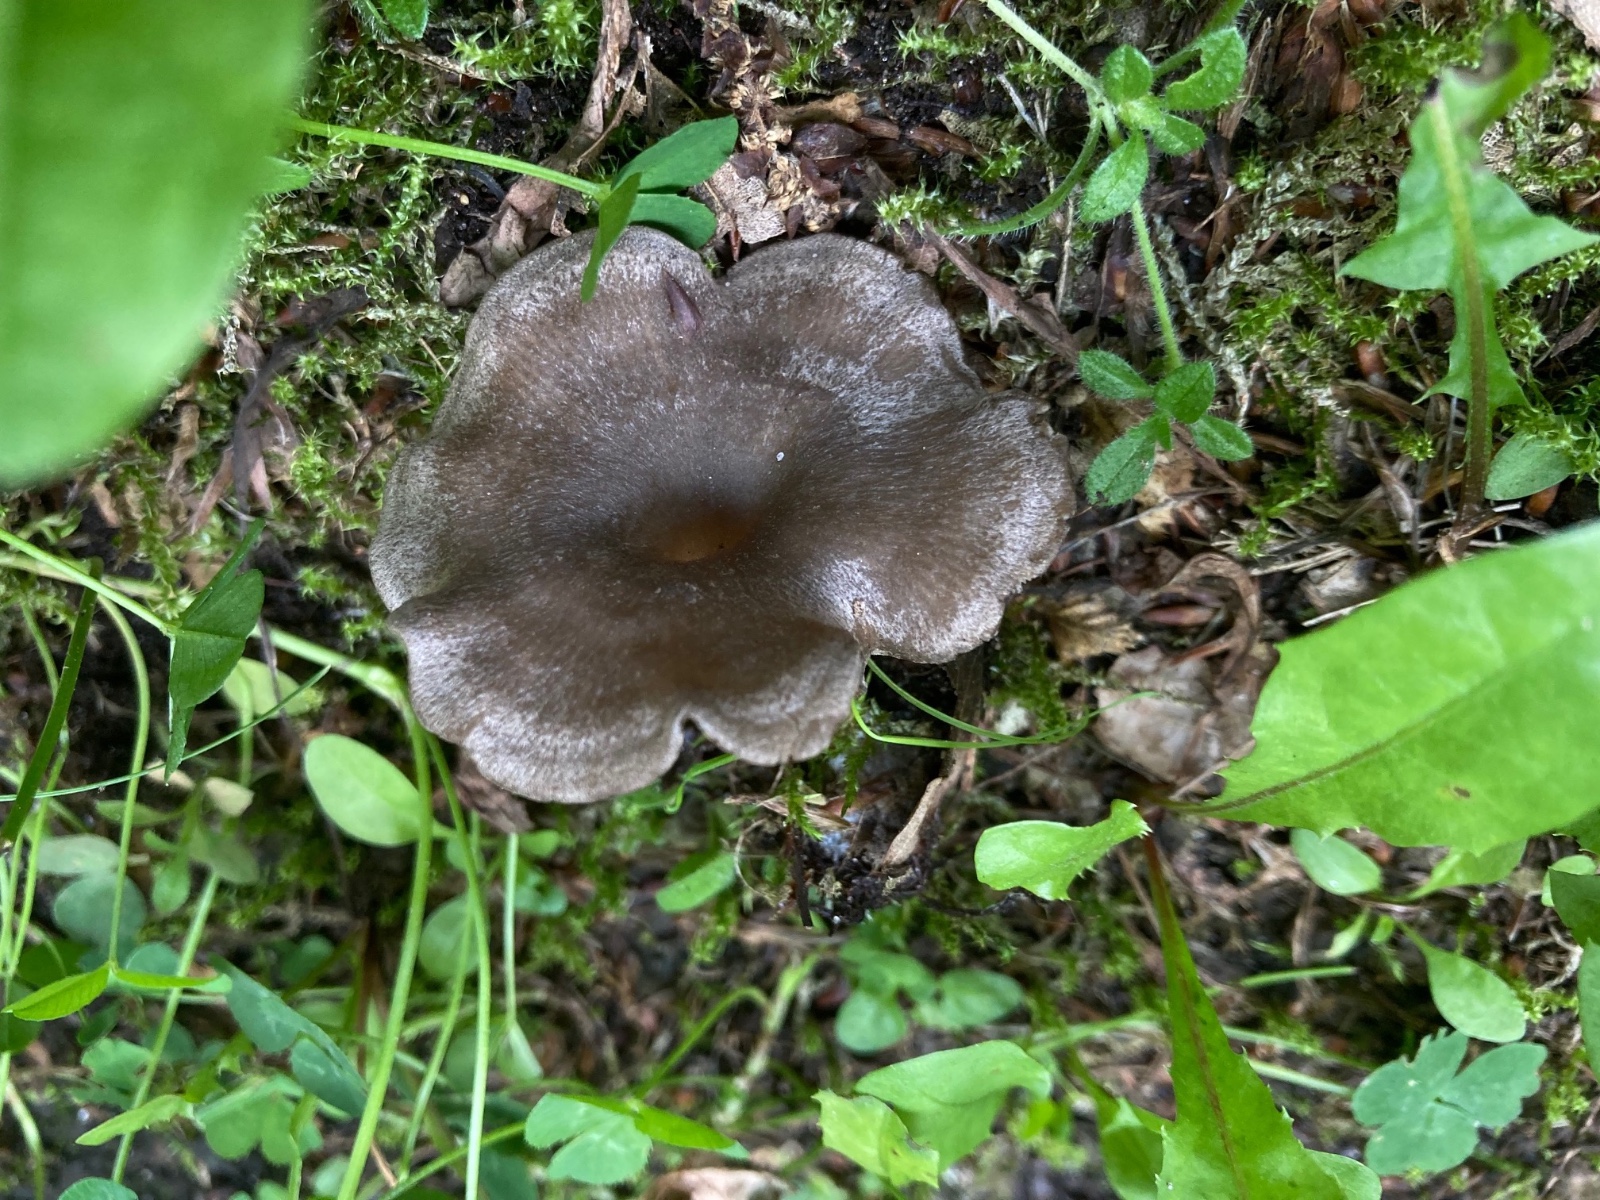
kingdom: Fungi
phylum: Basidiomycota
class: Agaricomycetes
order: Agaricales
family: Entolomataceae
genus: Entoloma
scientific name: Entoloma undatum
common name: bæltet rødblad
